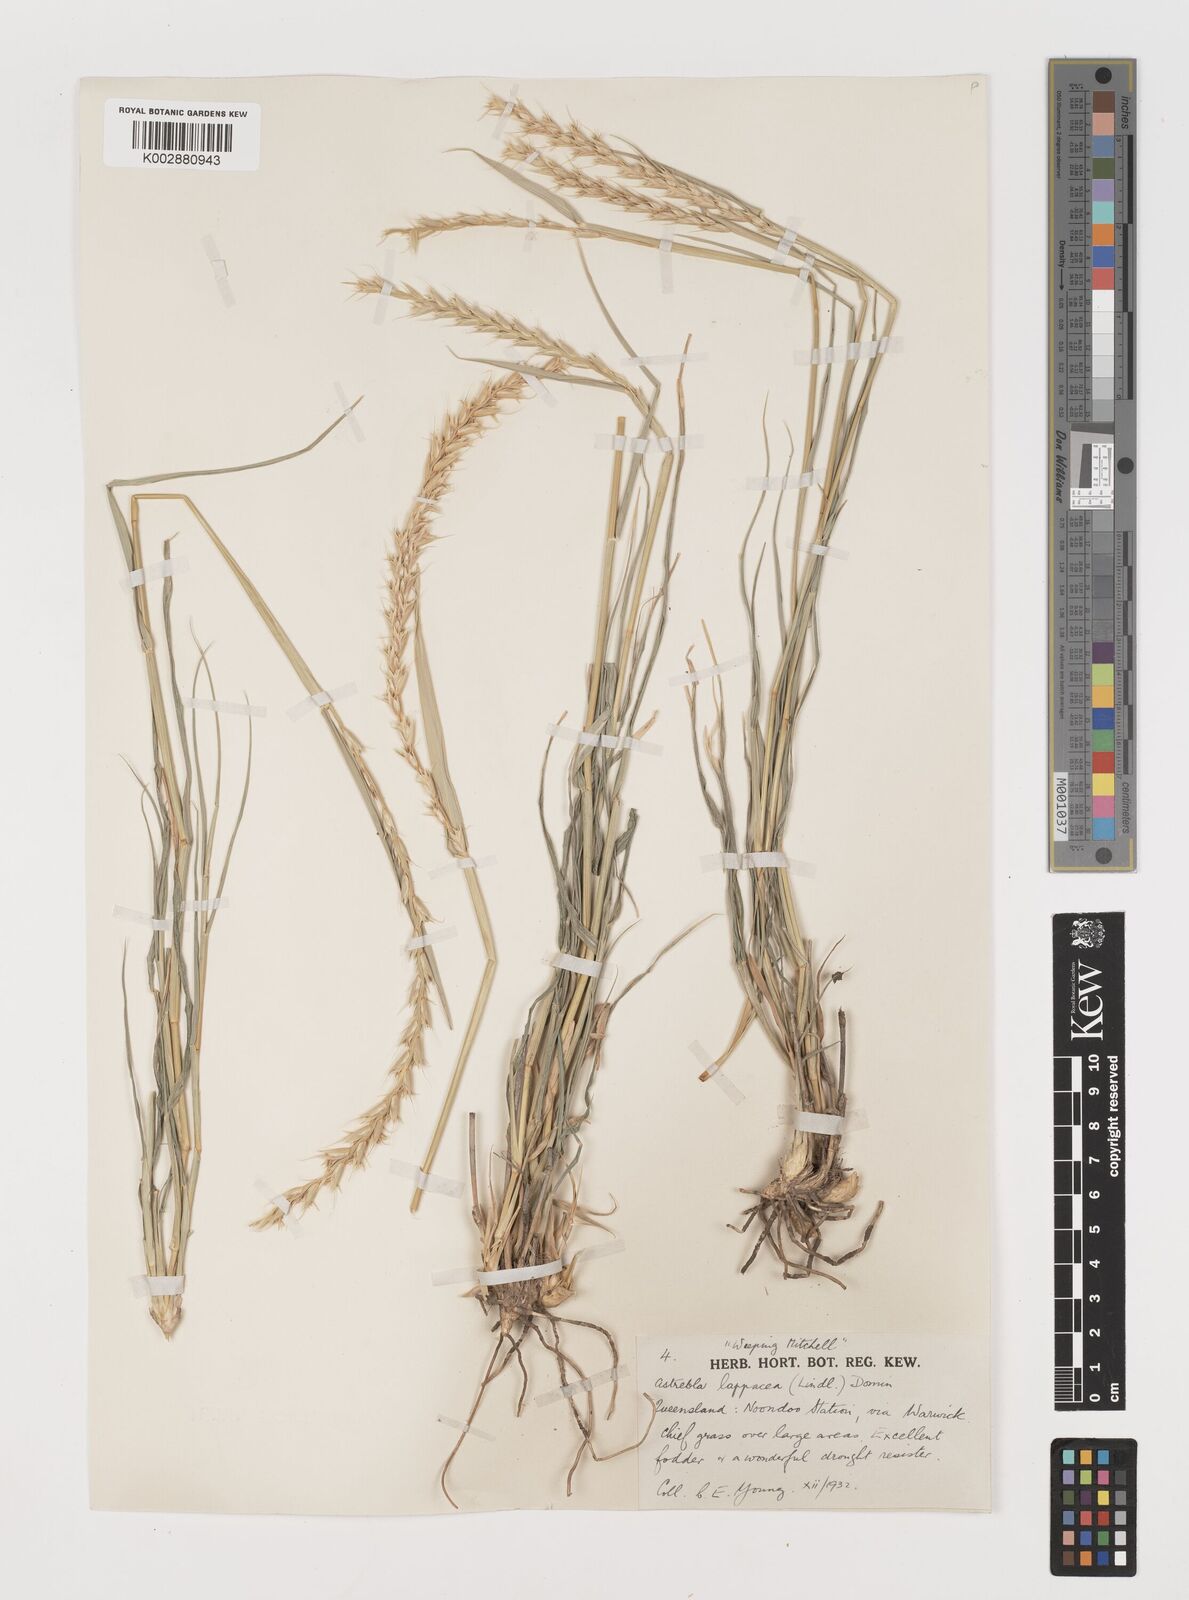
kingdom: Plantae
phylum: Tracheophyta
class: Liliopsida
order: Poales
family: Poaceae
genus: Astrebla
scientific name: Astrebla lappacea
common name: Curly mitchell grass
